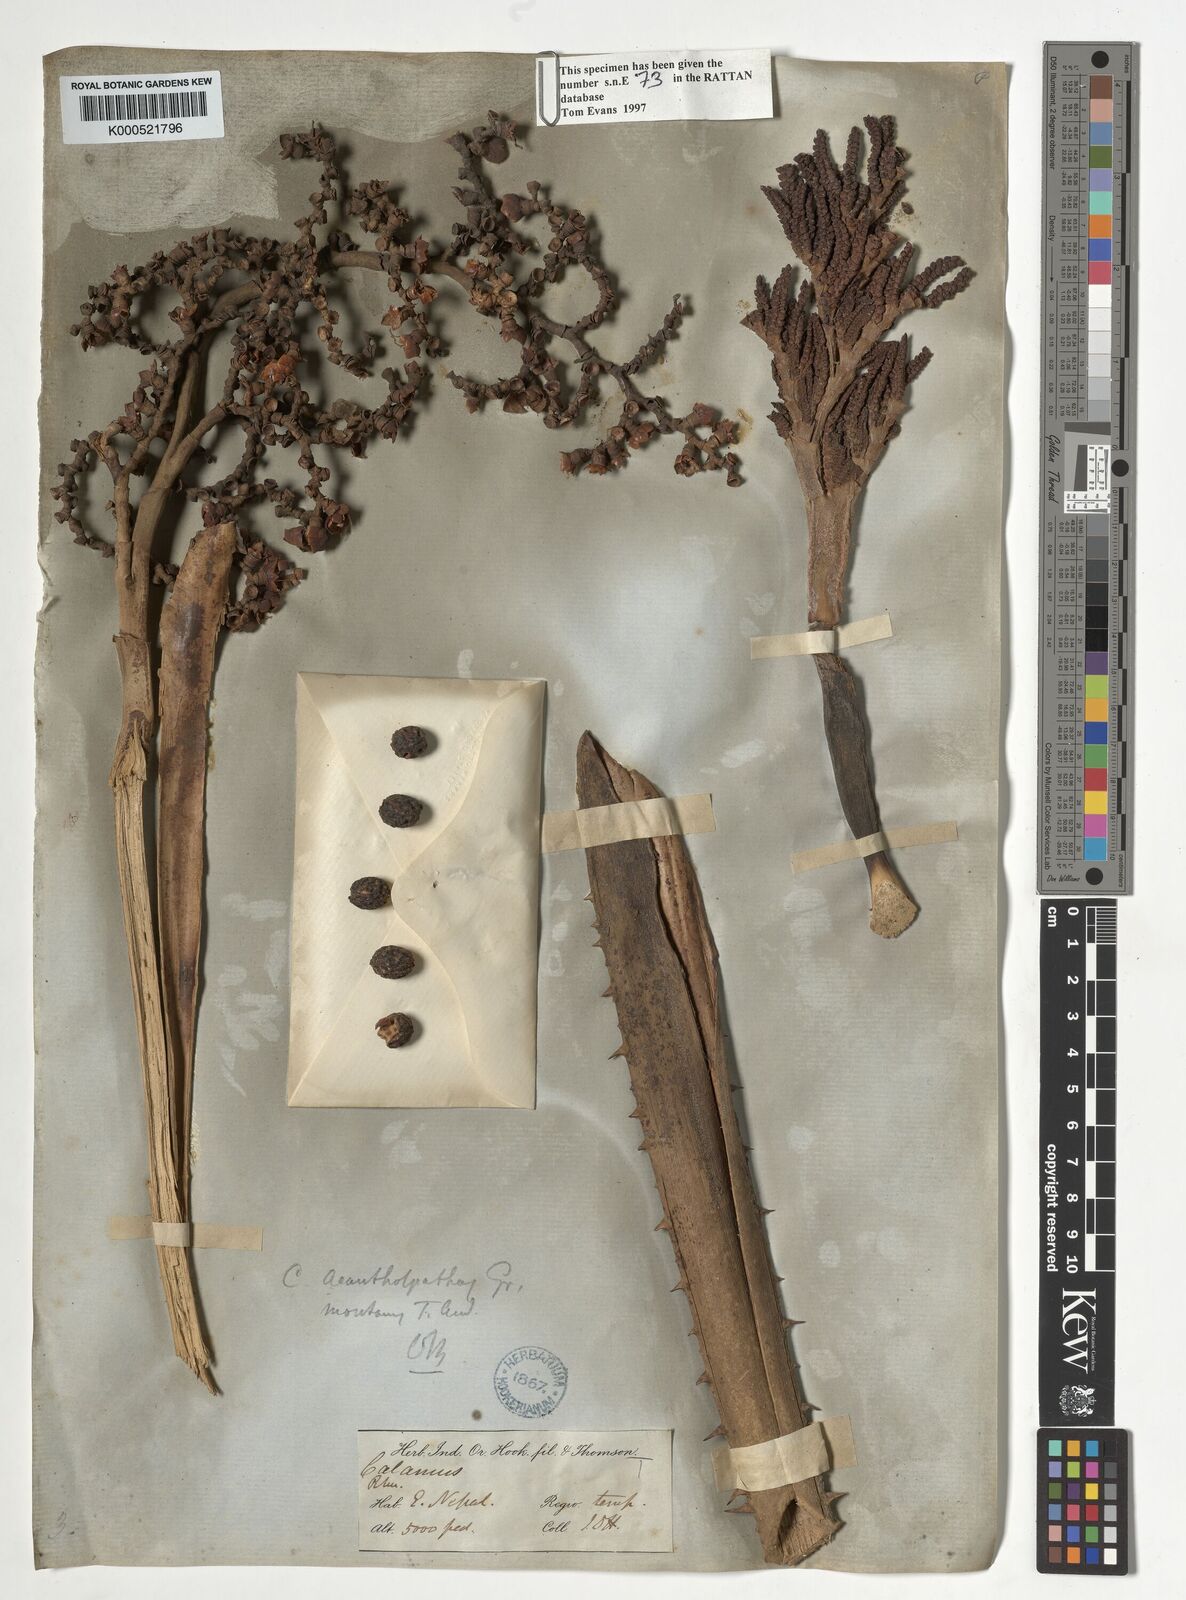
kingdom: Plantae
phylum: Tracheophyta
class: Liliopsida
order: Arecales
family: Arecaceae
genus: Calamus
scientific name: Calamus acanthospathus
